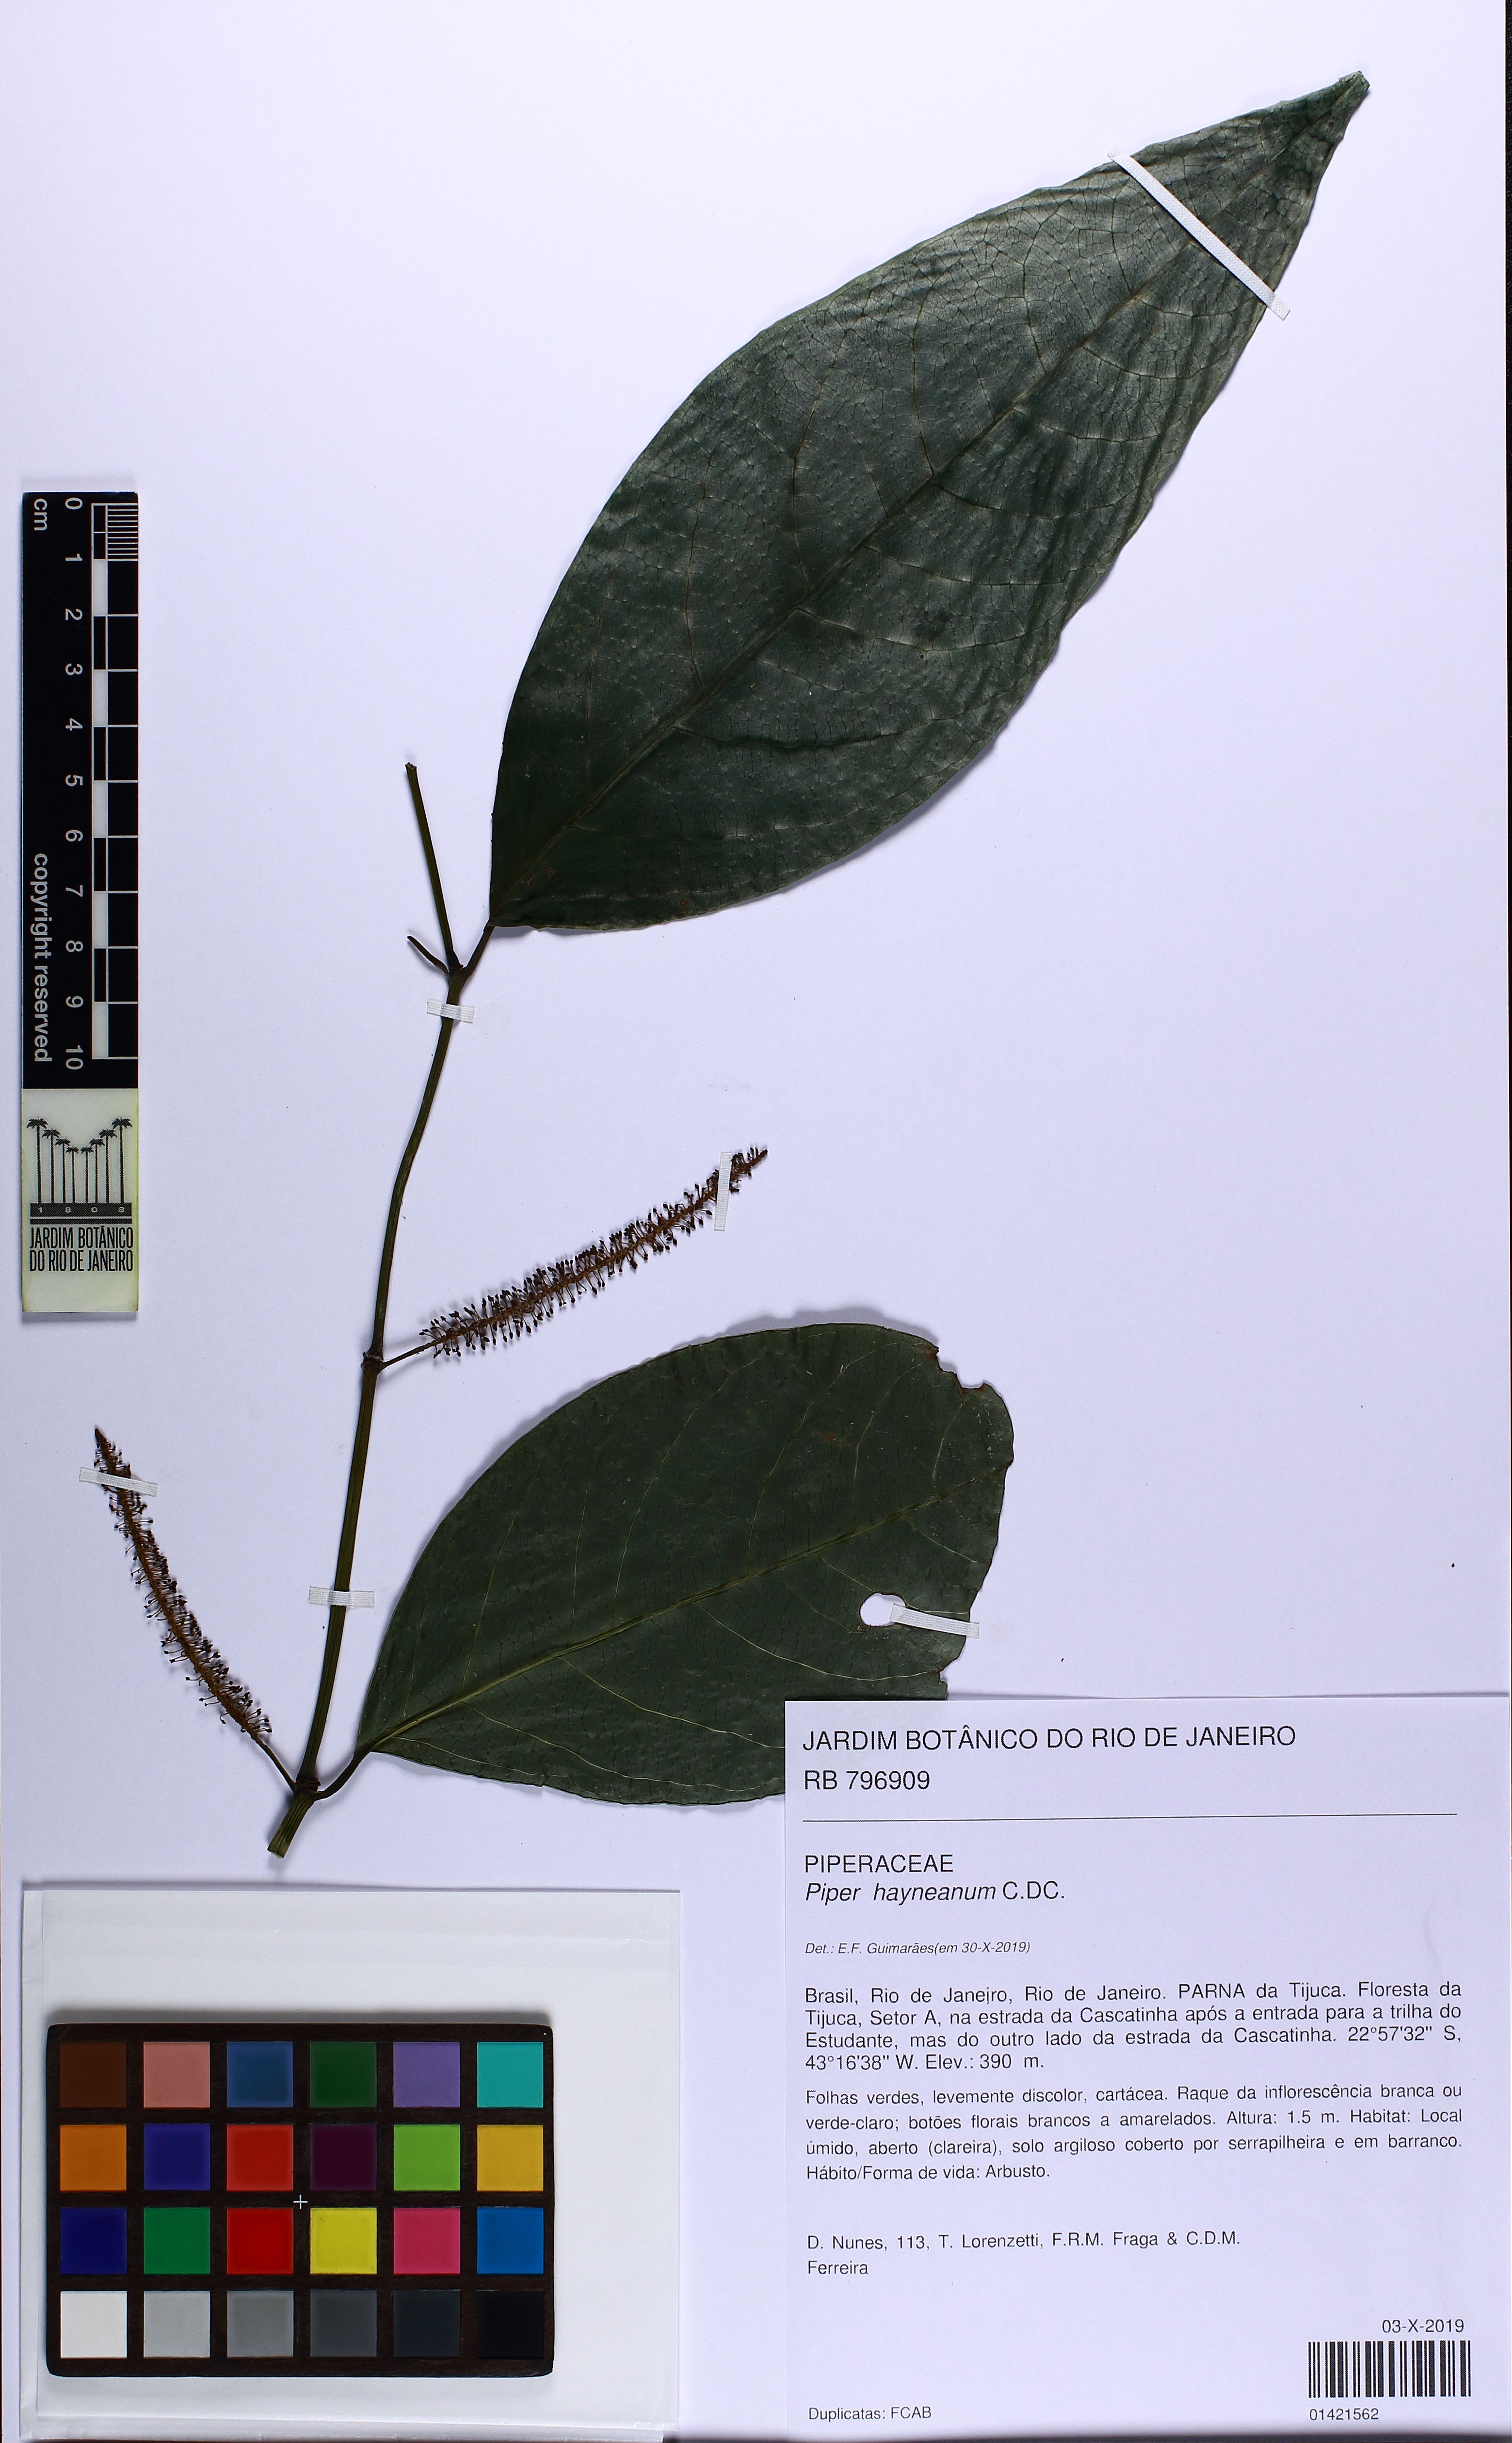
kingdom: Plantae
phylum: Tracheophyta
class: Magnoliopsida
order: Piperales
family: Piperaceae
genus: Piper
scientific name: Piper hayneanum
